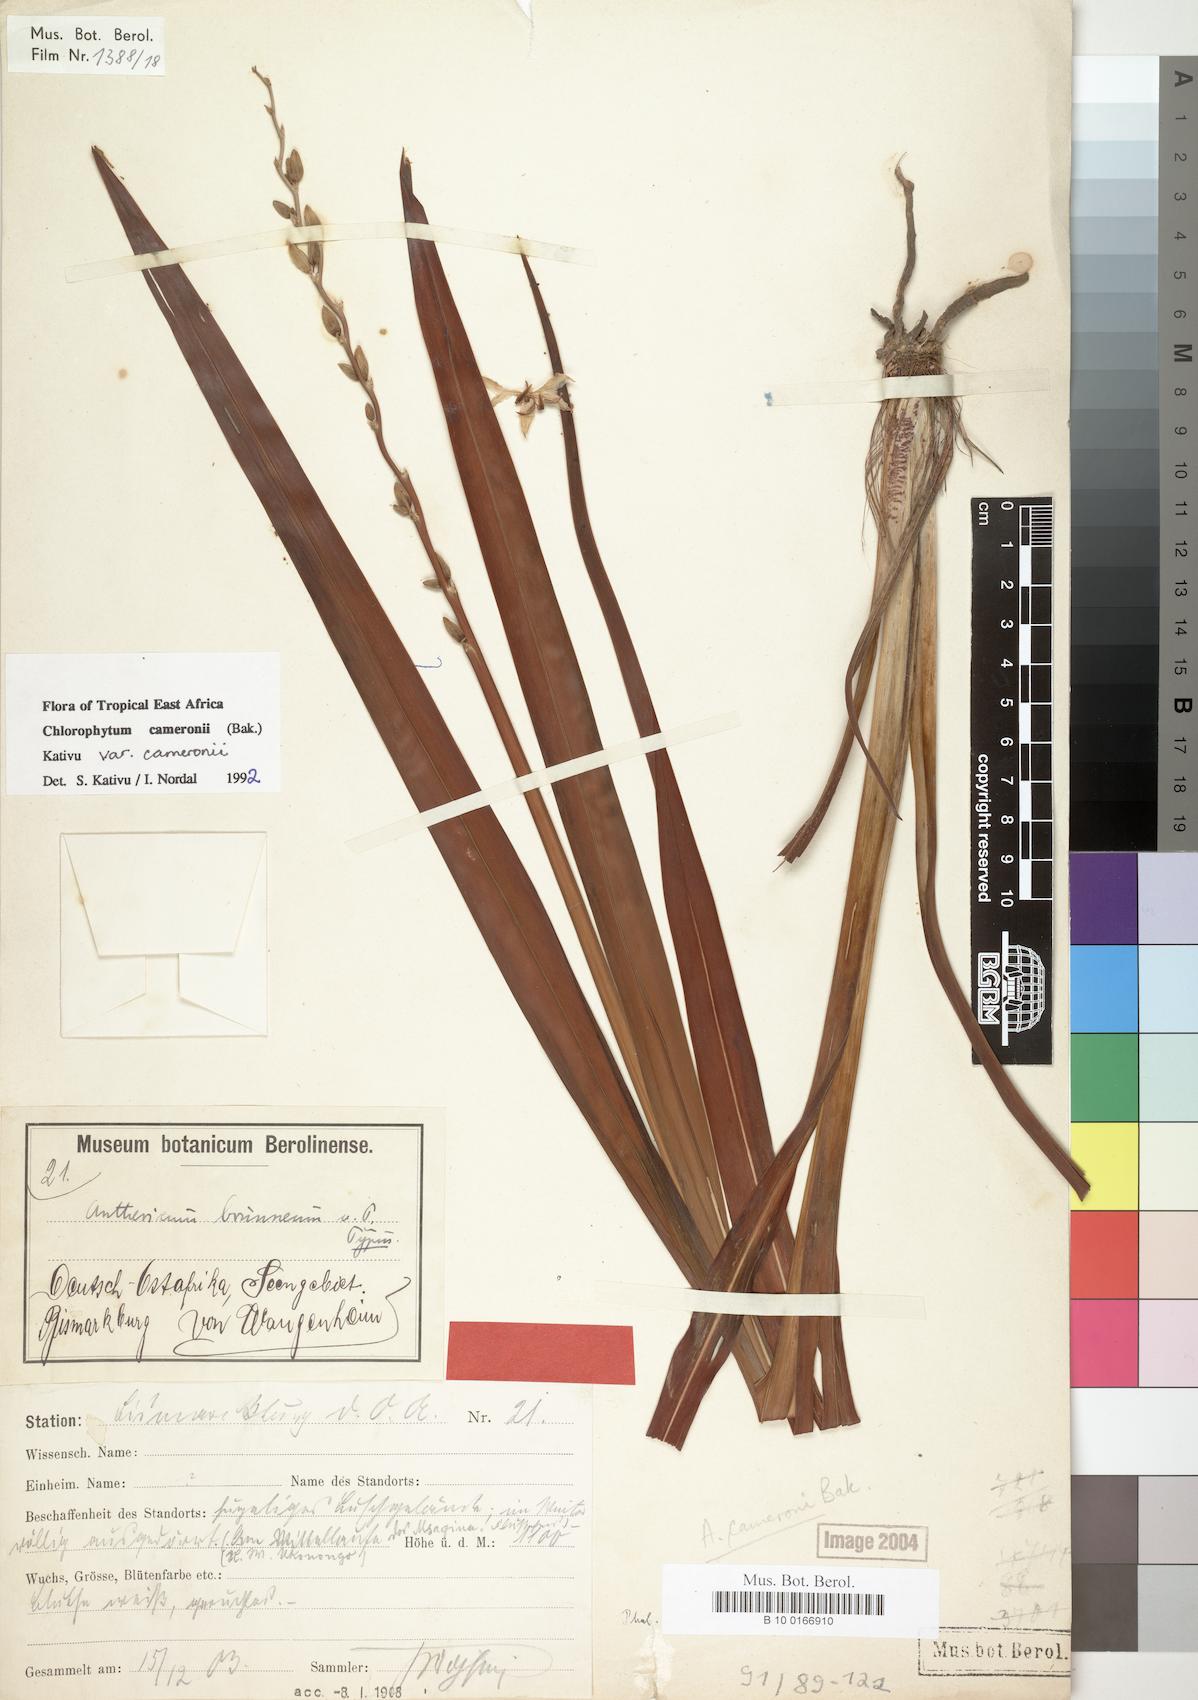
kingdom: Plantae
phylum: Tracheophyta
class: Liliopsida
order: Asparagales
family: Asparagaceae
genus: Chlorophytum
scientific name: Chlorophytum cameronii
